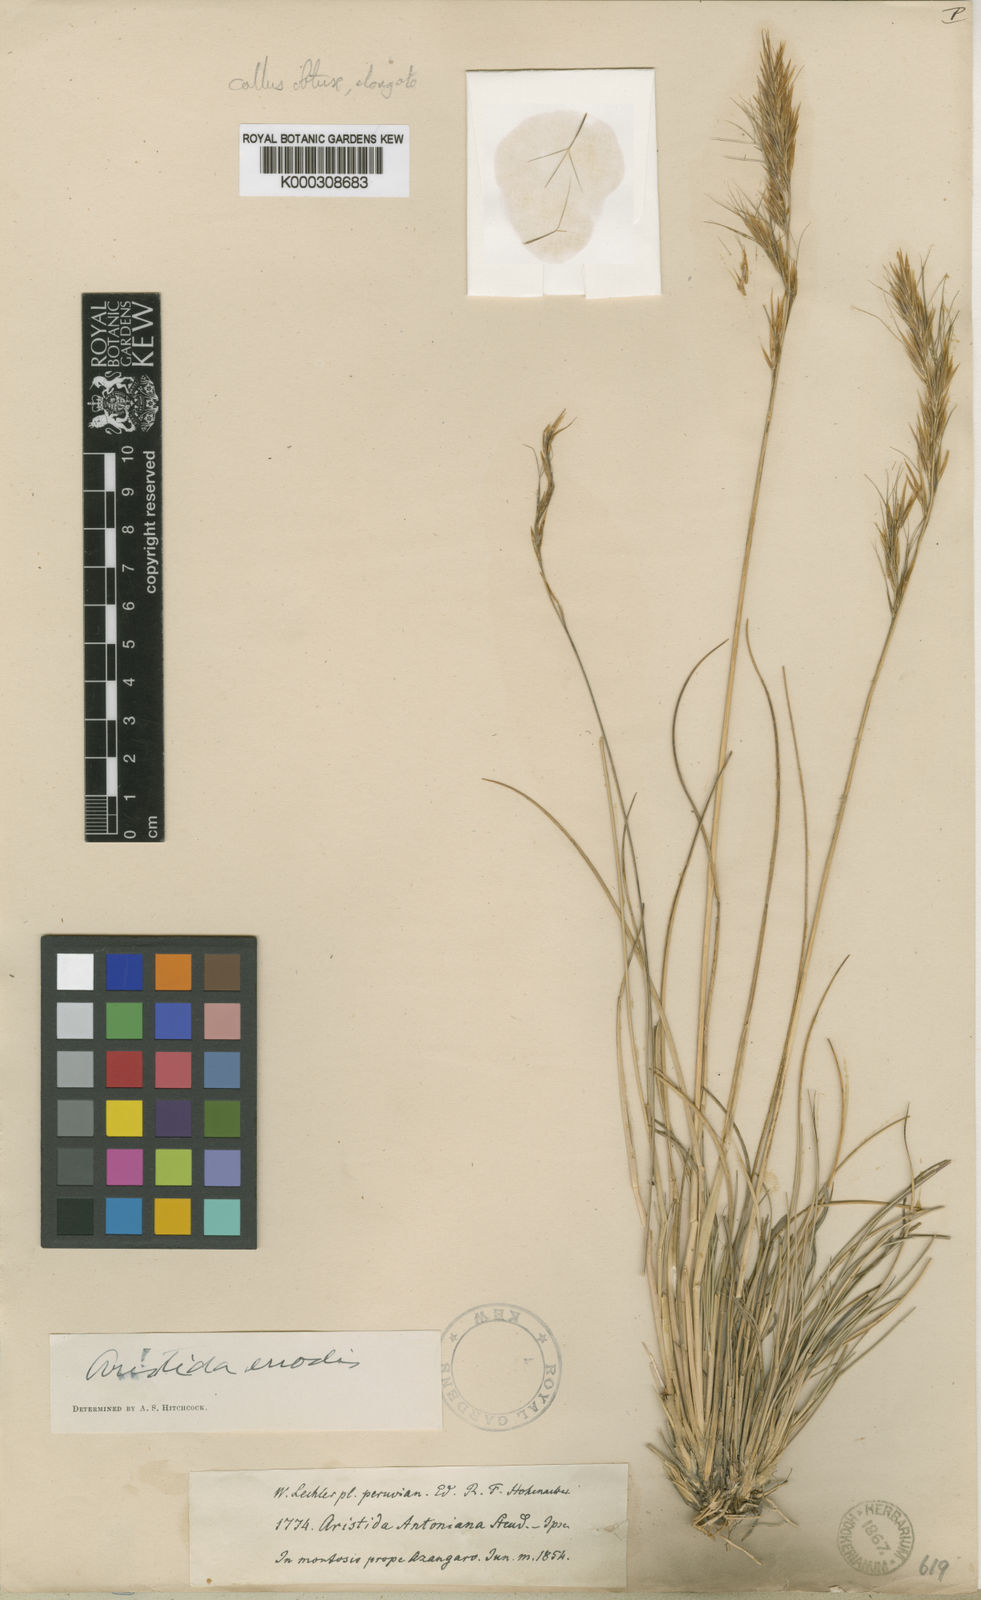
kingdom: Plantae
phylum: Tracheophyta
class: Liliopsida
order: Poales
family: Poaceae
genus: Aristida
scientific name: Aristida
